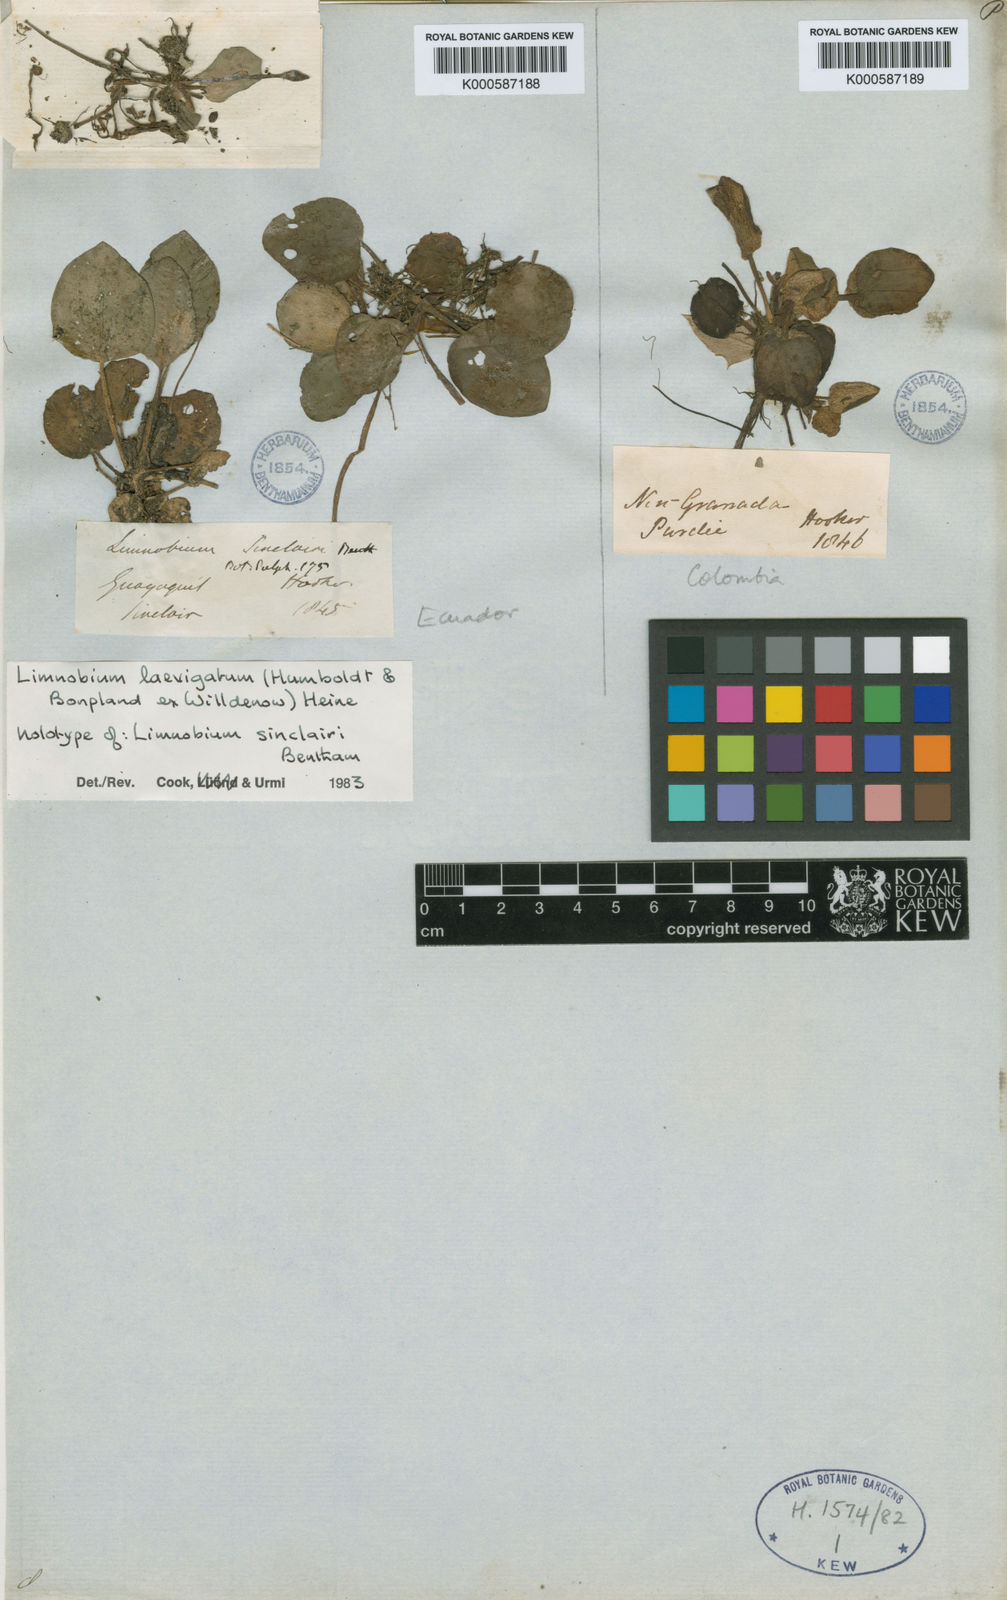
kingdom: Plantae
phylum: Tracheophyta
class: Liliopsida
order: Alismatales
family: Hydrocharitaceae
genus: Hydrocharis
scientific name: Hydrocharis laevigata
